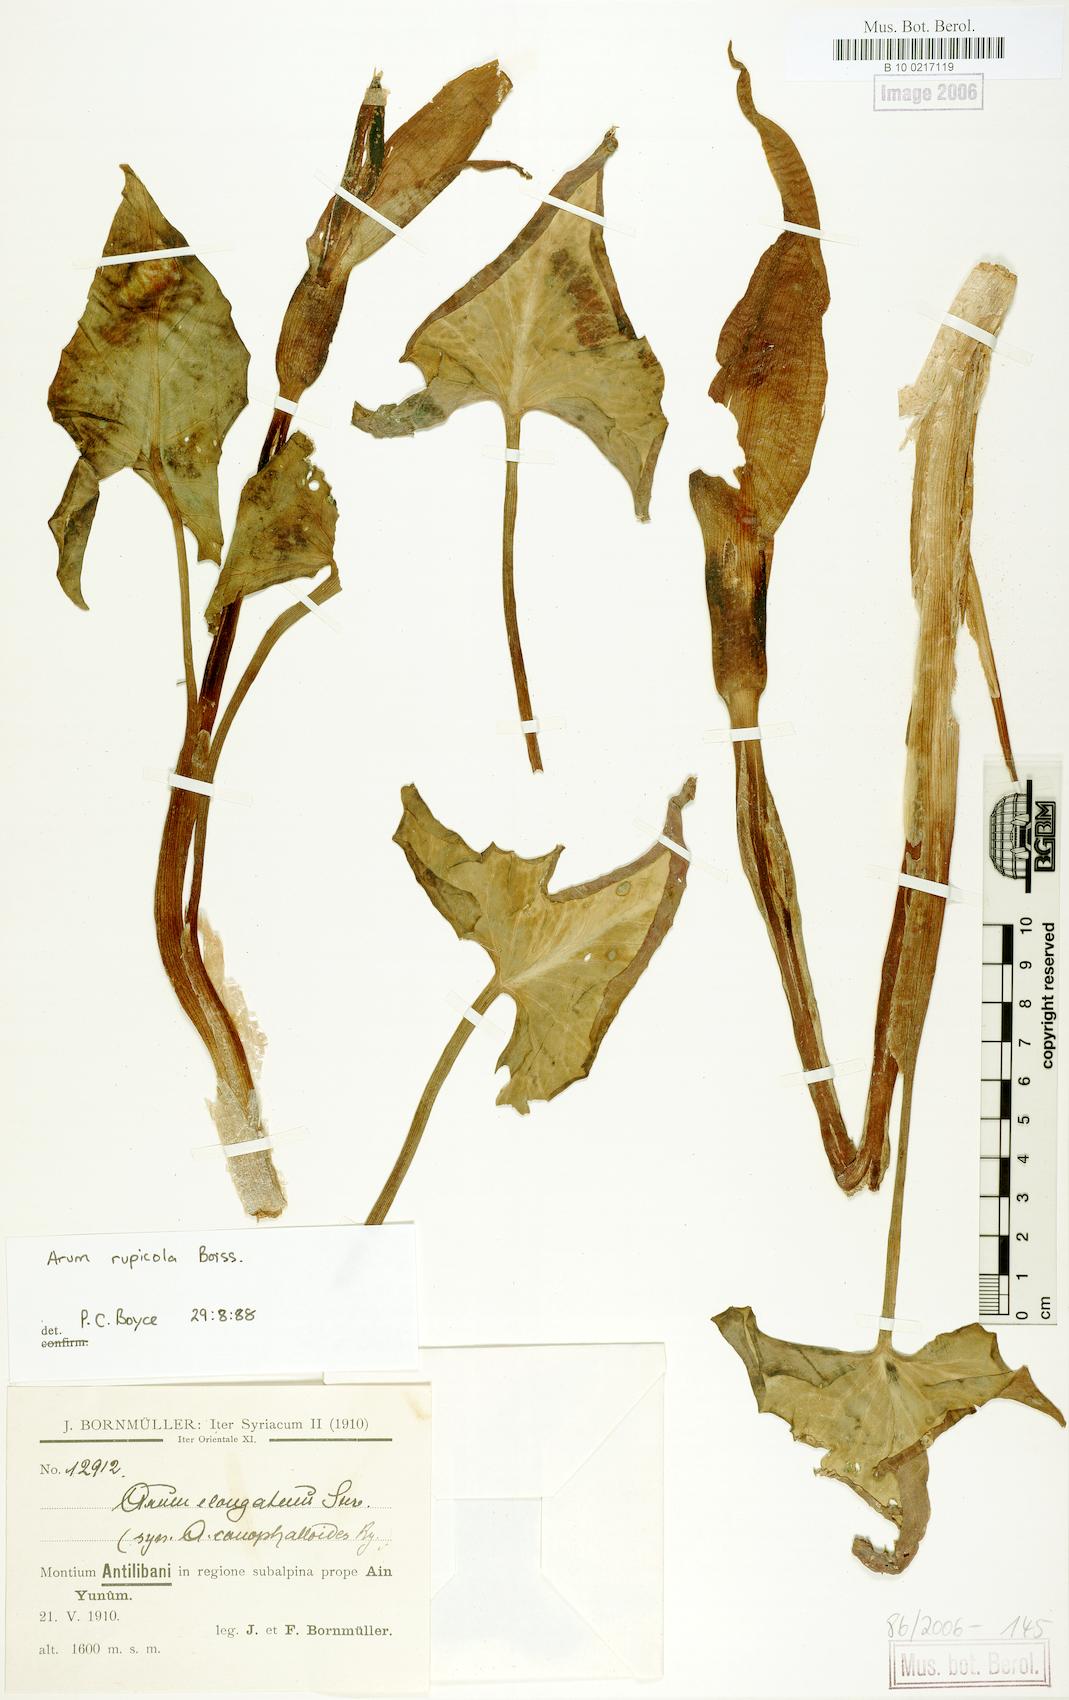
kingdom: Plantae
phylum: Tracheophyta
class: Liliopsida
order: Alismatales
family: Araceae
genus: Arum
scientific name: Arum rupicola
